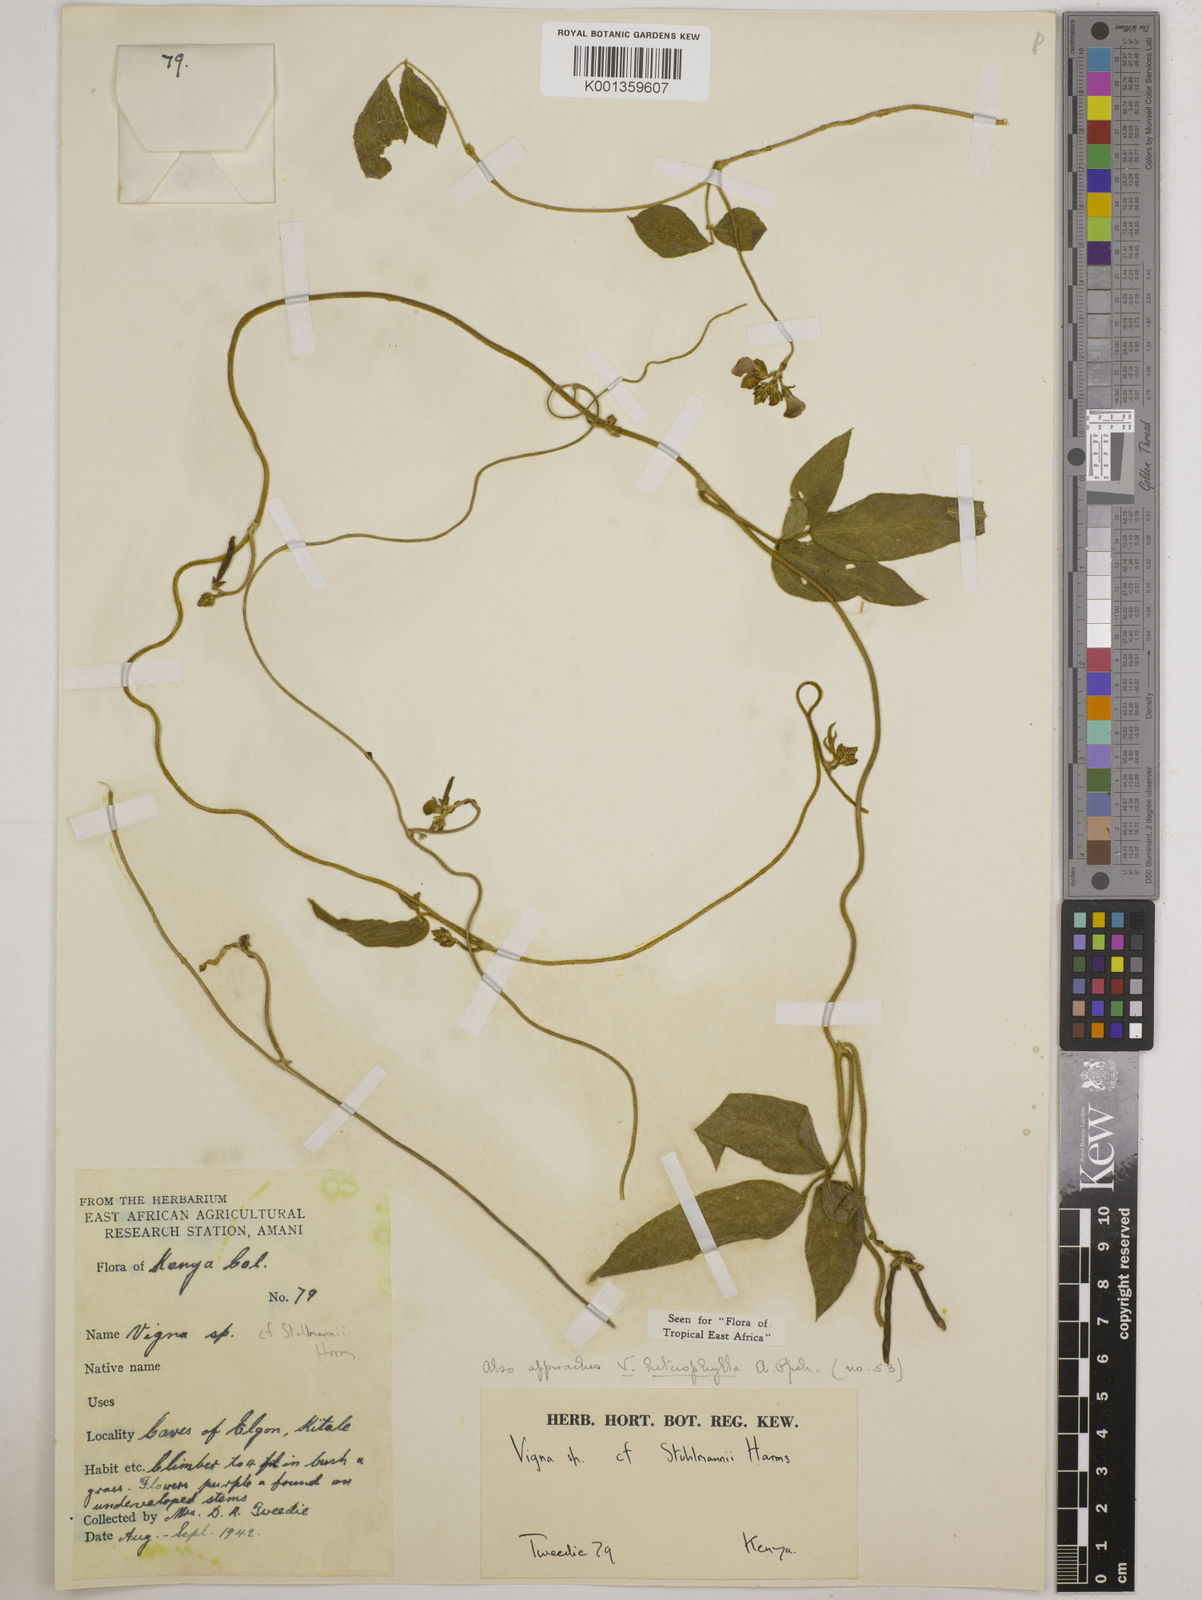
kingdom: Plantae
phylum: Tracheophyta
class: Magnoliopsida
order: Fabales
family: Fabaceae
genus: Vigna
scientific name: Vigna heterophylla
